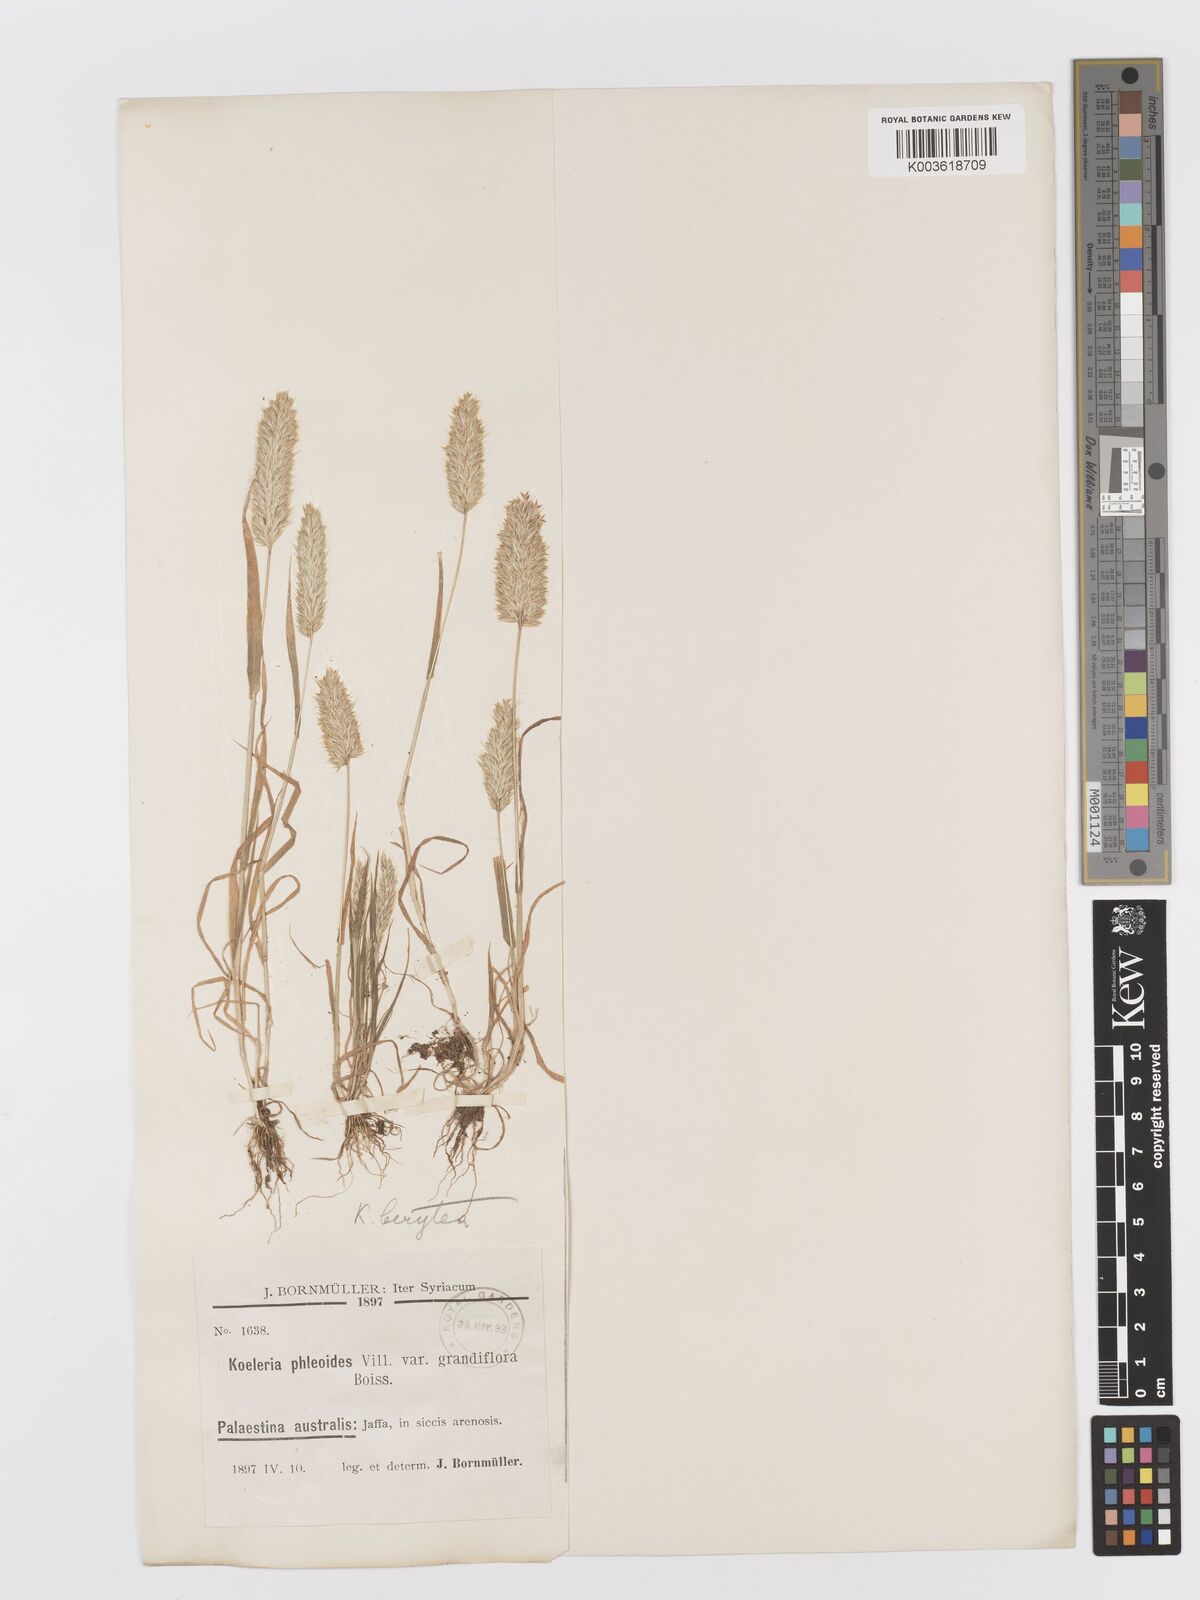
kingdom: Plantae
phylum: Tracheophyta
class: Liliopsida
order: Poales
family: Poaceae
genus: Rostraria
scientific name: Rostraria smyrnaea
